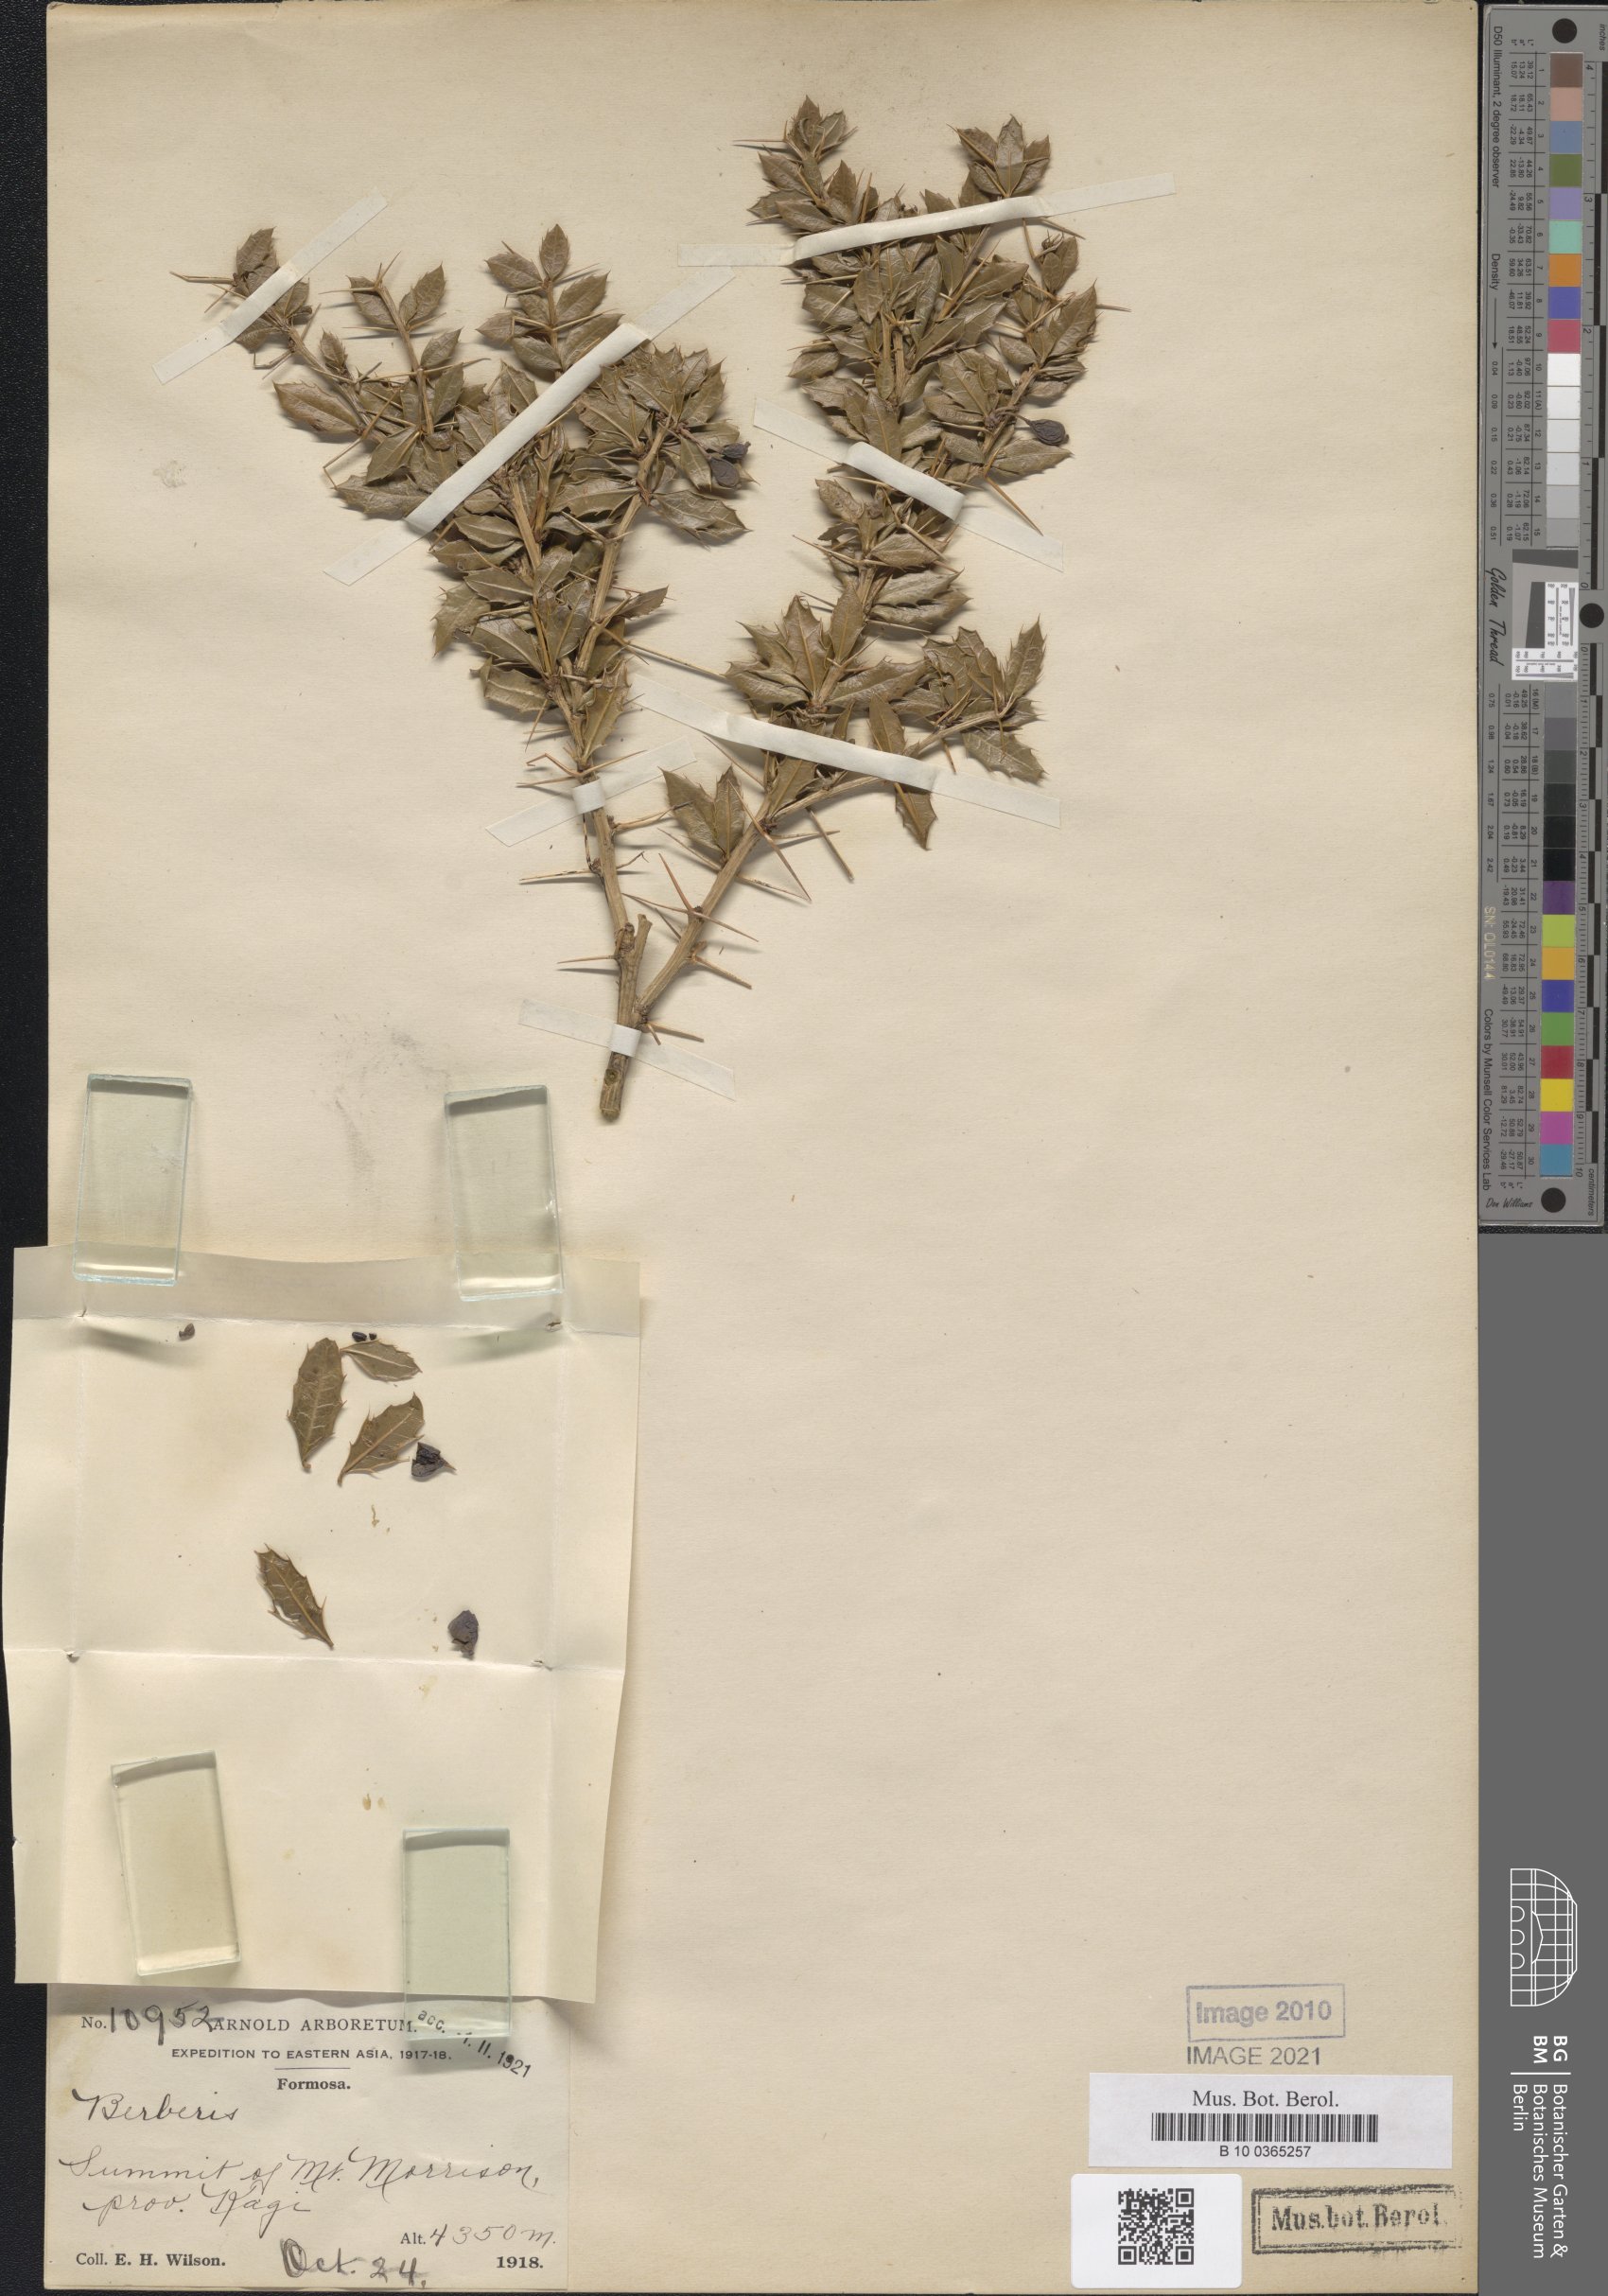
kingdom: Plantae
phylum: Tracheophyta
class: Magnoliopsida
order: Ranunculales
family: Berberidaceae
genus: Berberis
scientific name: Berberis alpicola
